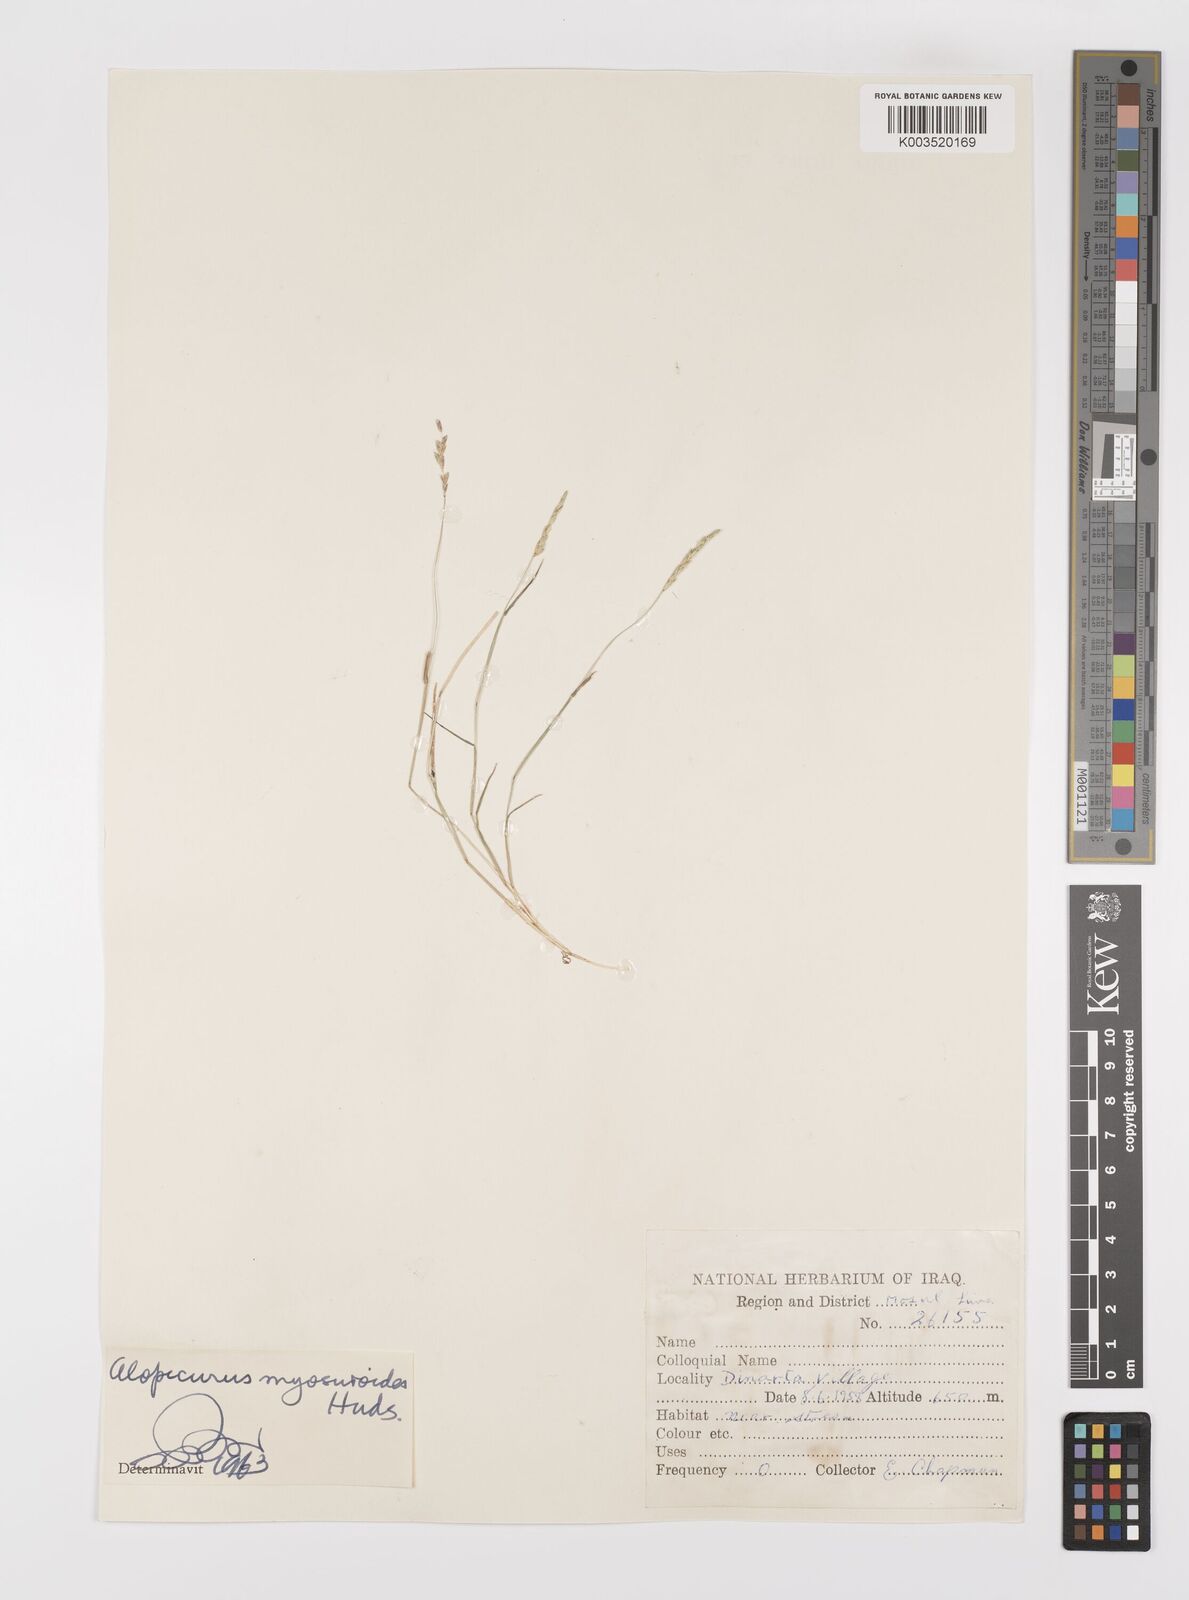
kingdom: Plantae
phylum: Tracheophyta
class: Liliopsida
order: Poales
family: Poaceae
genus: Alopecurus
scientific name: Alopecurus myosuroides
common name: Black-grass
